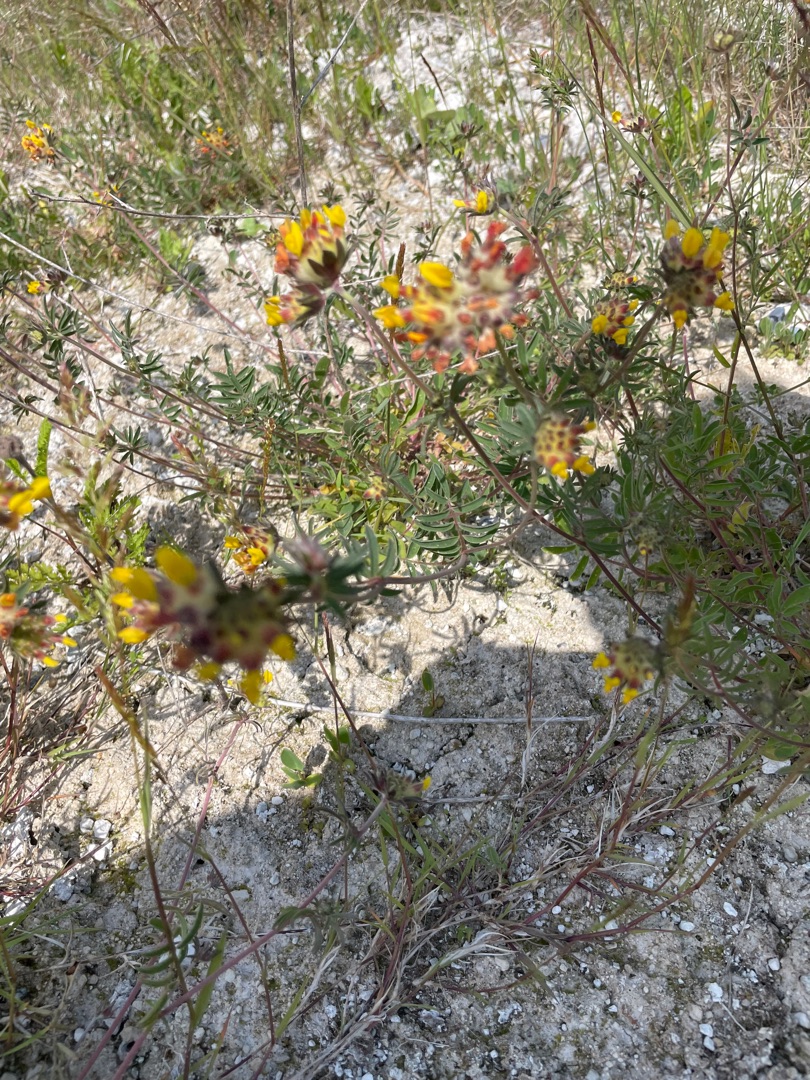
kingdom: Plantae
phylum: Tracheophyta
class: Magnoliopsida
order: Fabales
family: Fabaceae
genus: Anthyllis
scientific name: Anthyllis vulneraria
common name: Rundbælg
